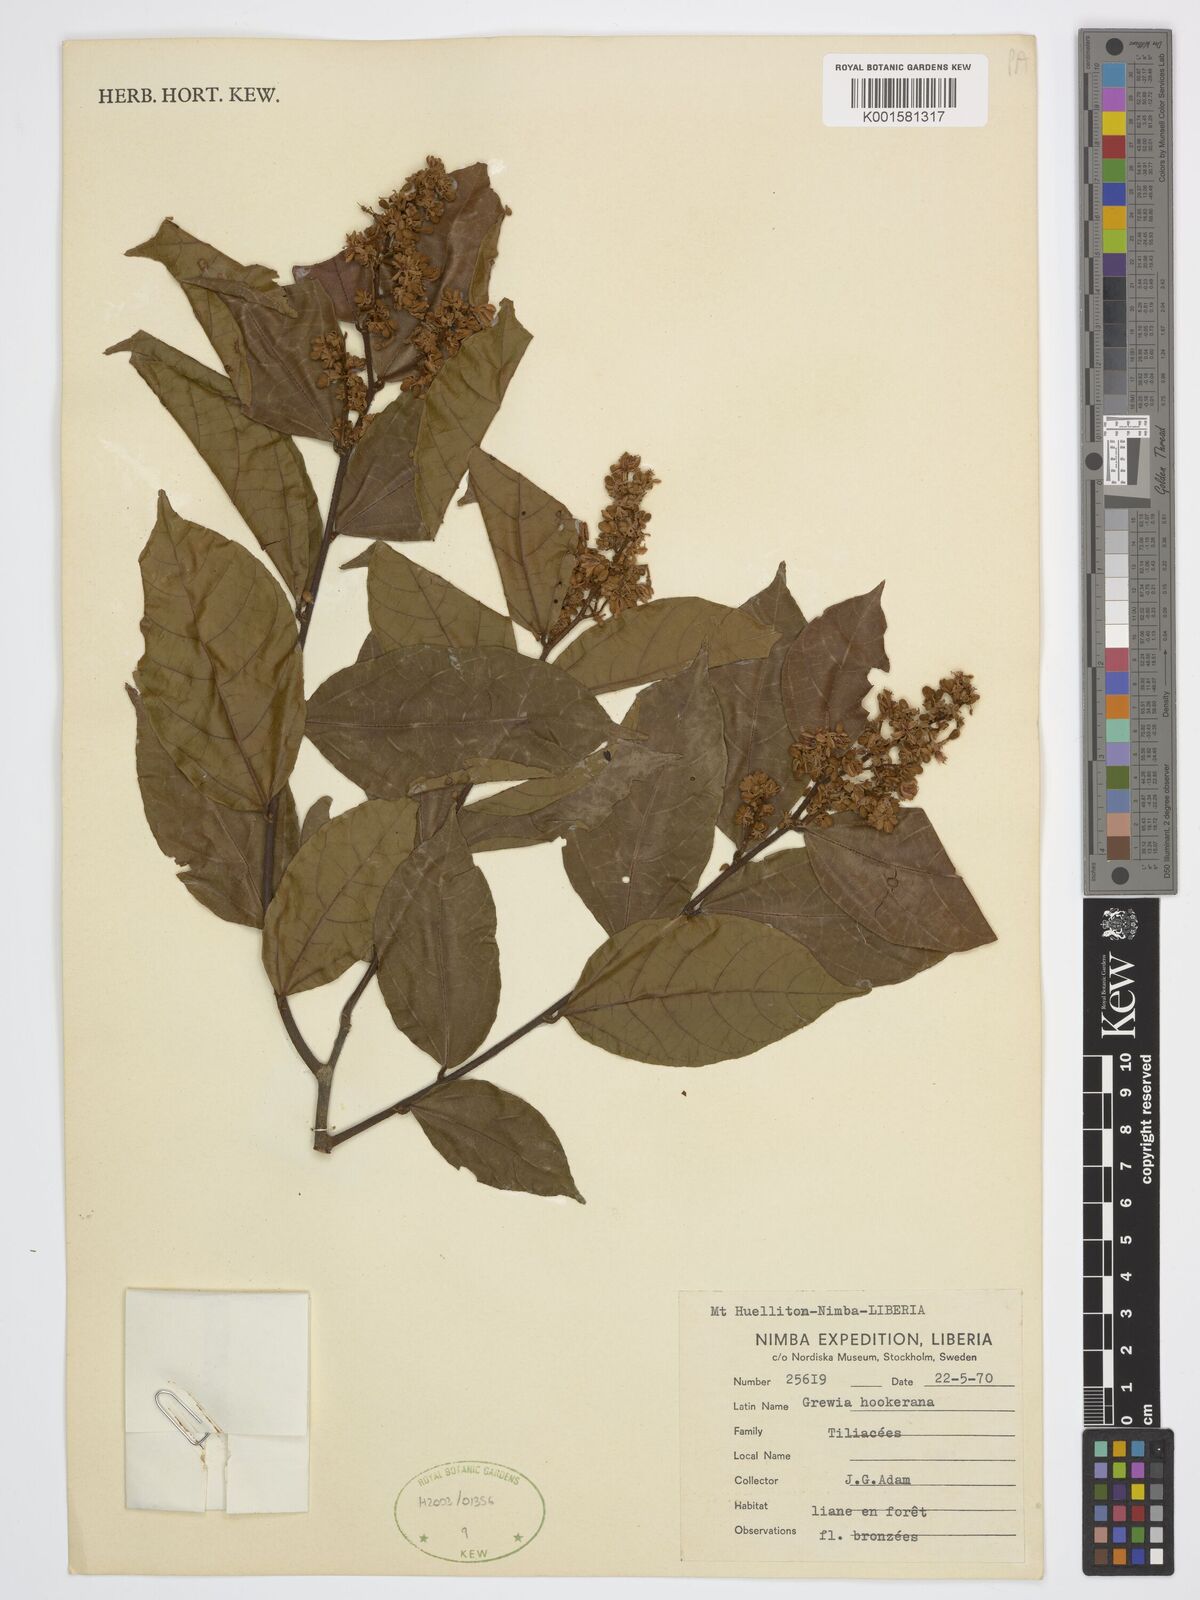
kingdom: Plantae
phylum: Tracheophyta
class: Magnoliopsida
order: Malvales
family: Malvaceae
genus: Microcos
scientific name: Microcos africana
